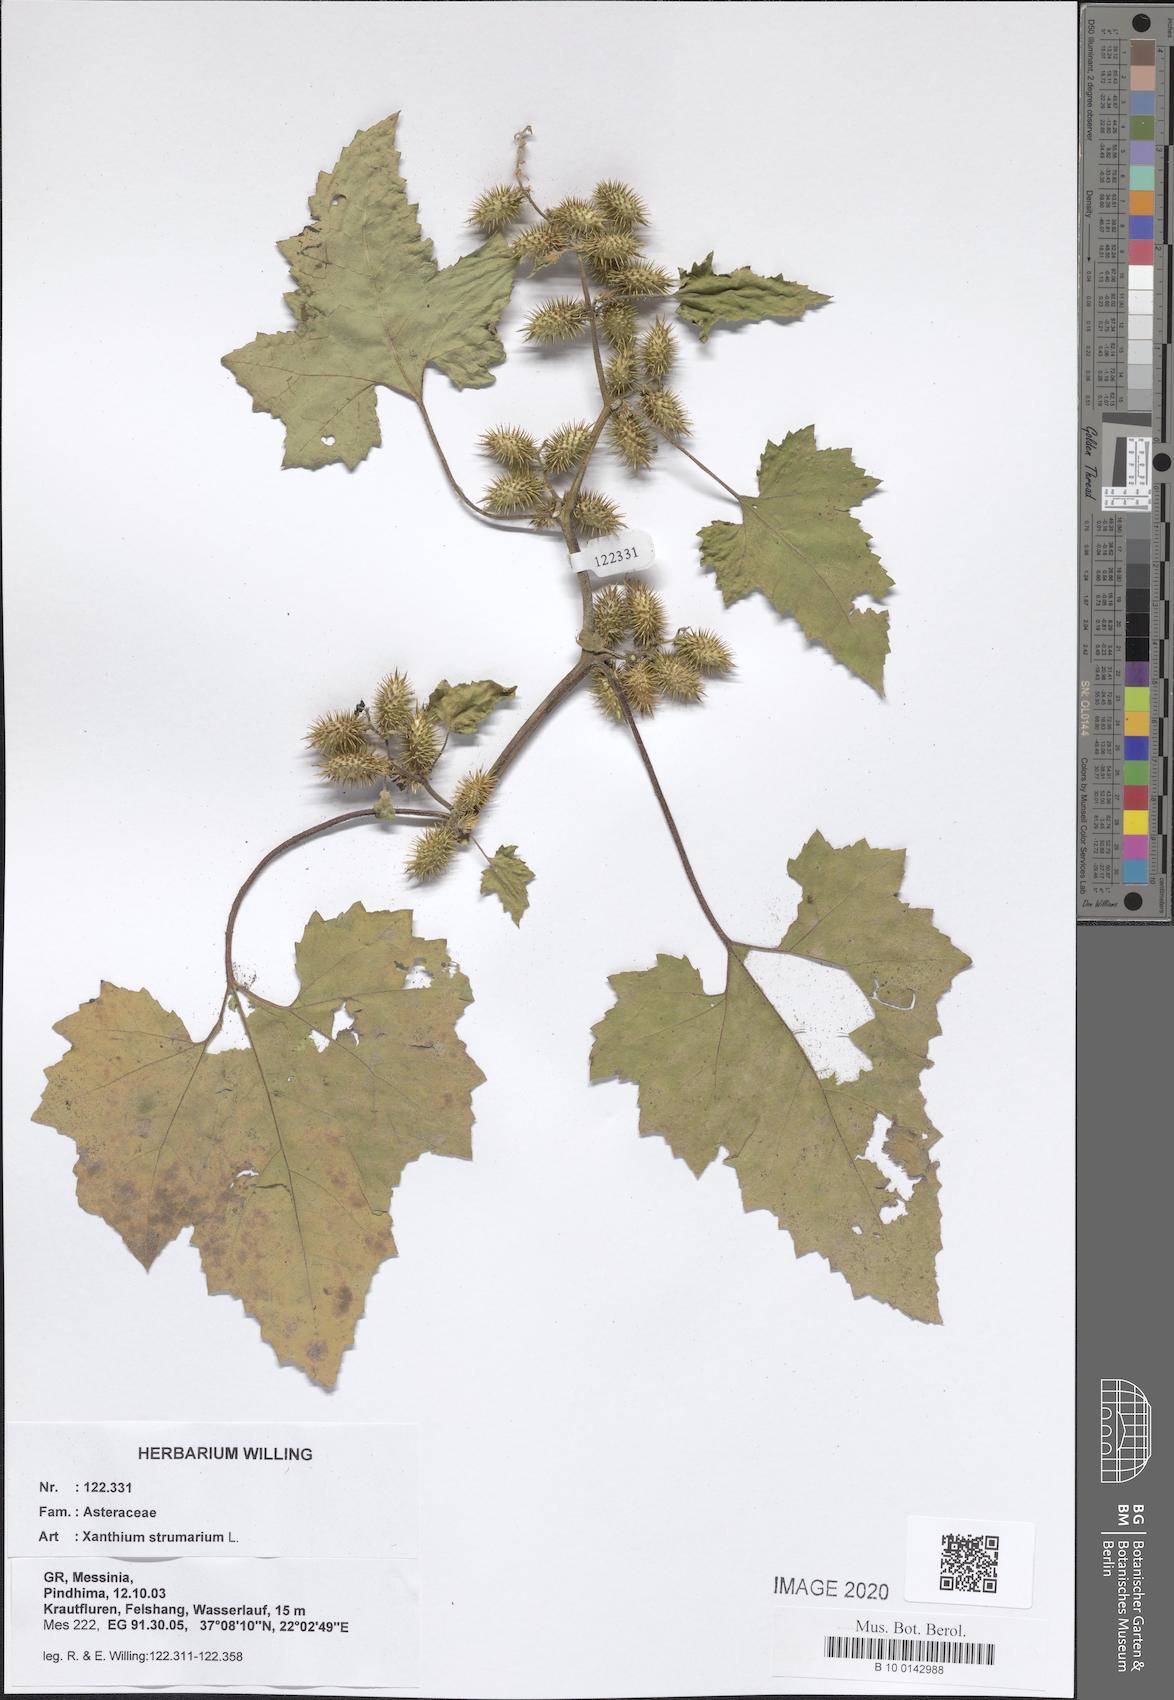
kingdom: Plantae
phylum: Tracheophyta
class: Magnoliopsida
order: Asterales
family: Asteraceae
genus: Xanthium
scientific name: Xanthium strumarium
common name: Rough cocklebur
